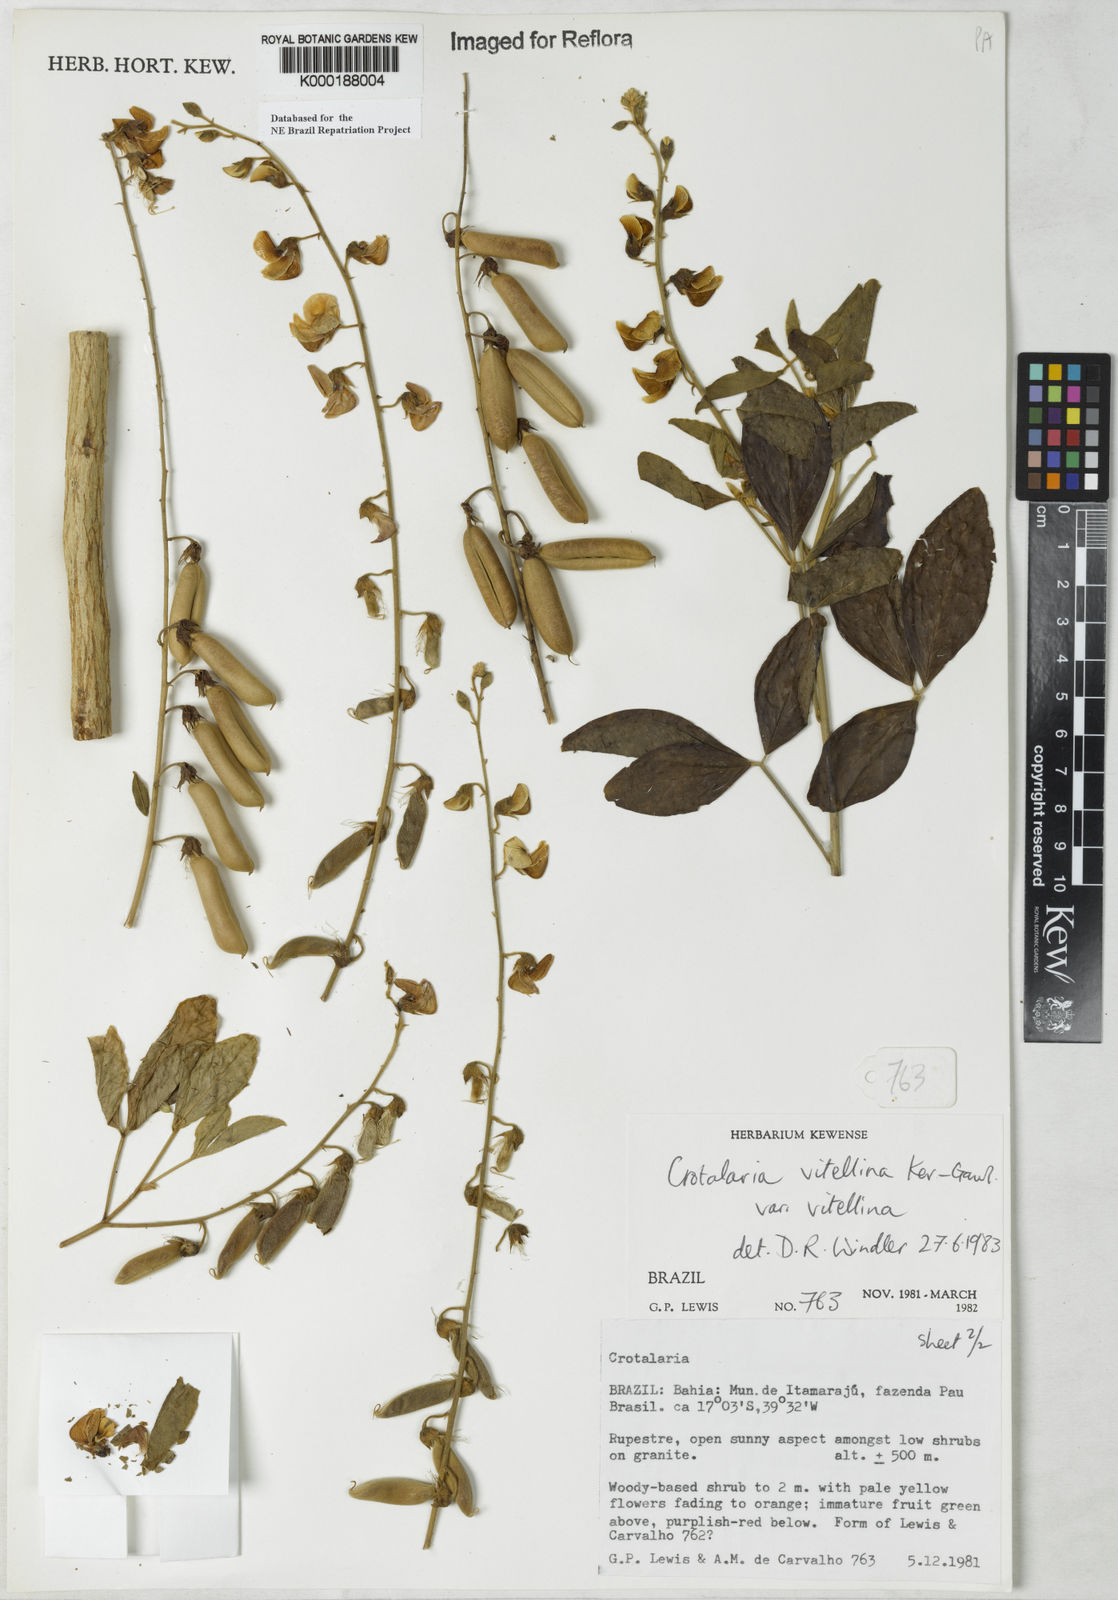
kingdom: Plantae
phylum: Tracheophyta
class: Magnoliopsida
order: Fabales
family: Fabaceae
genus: Crotalaria
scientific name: Crotalaria vitellina
